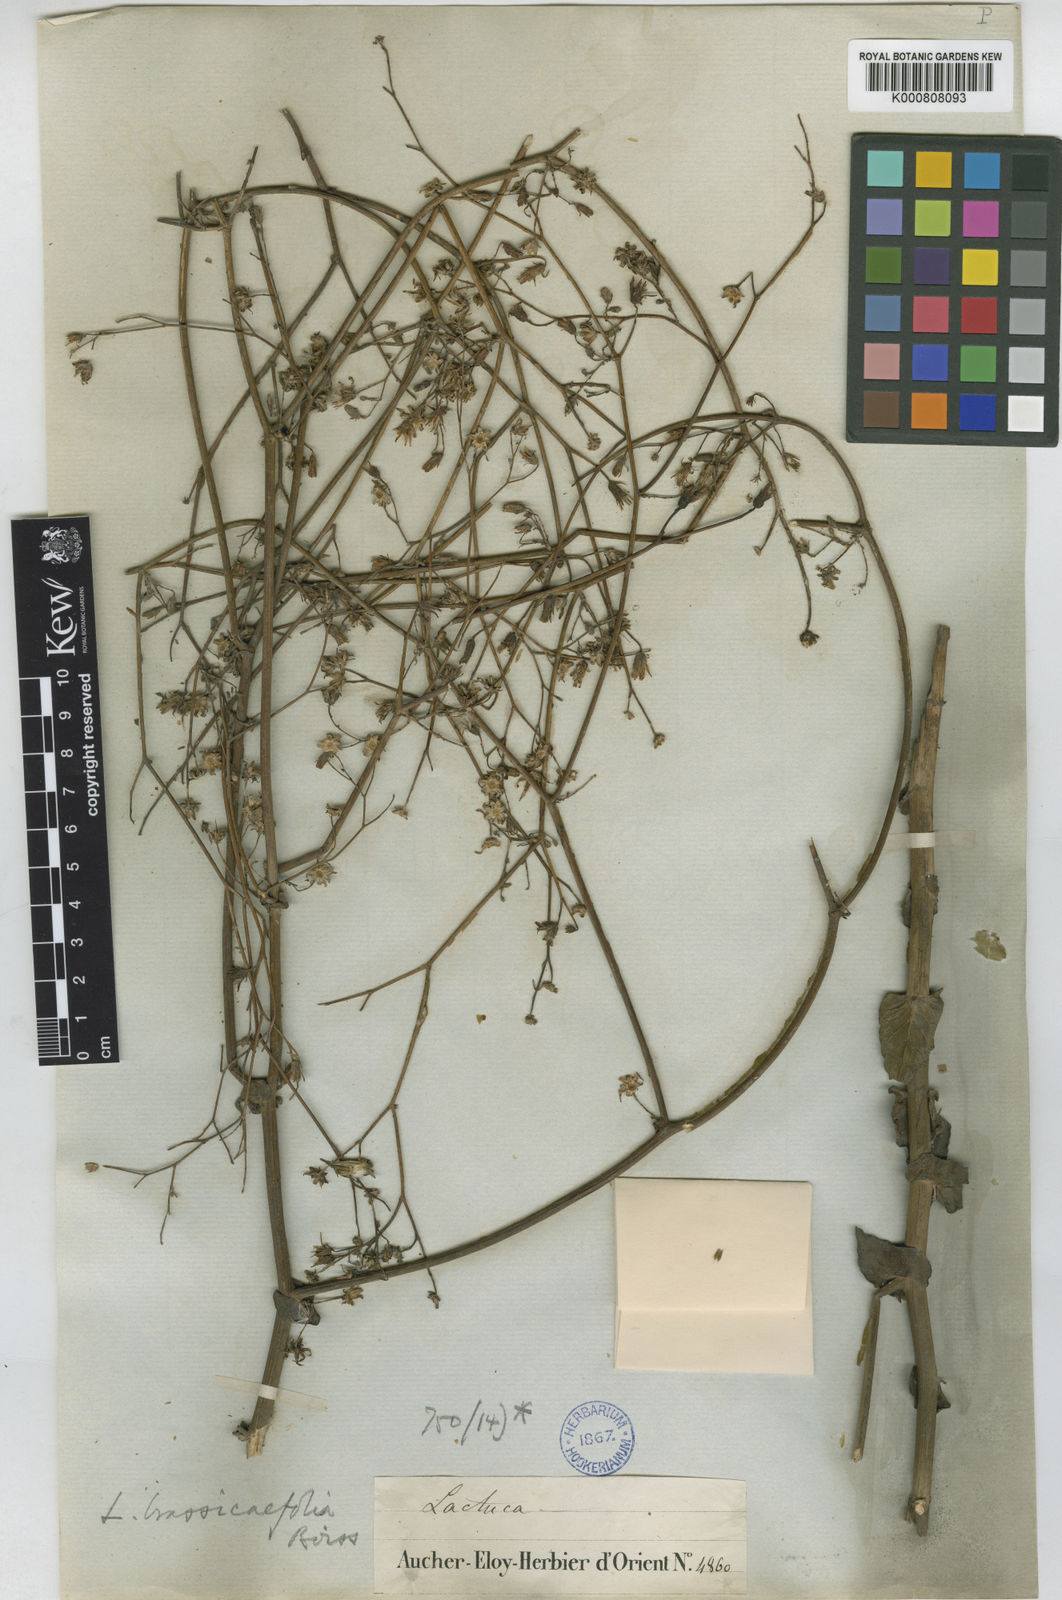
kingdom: Plantae
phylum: Tracheophyta
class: Magnoliopsida
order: Asterales
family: Asteraceae
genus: Lactuca
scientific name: Lactuca brassicifolia
